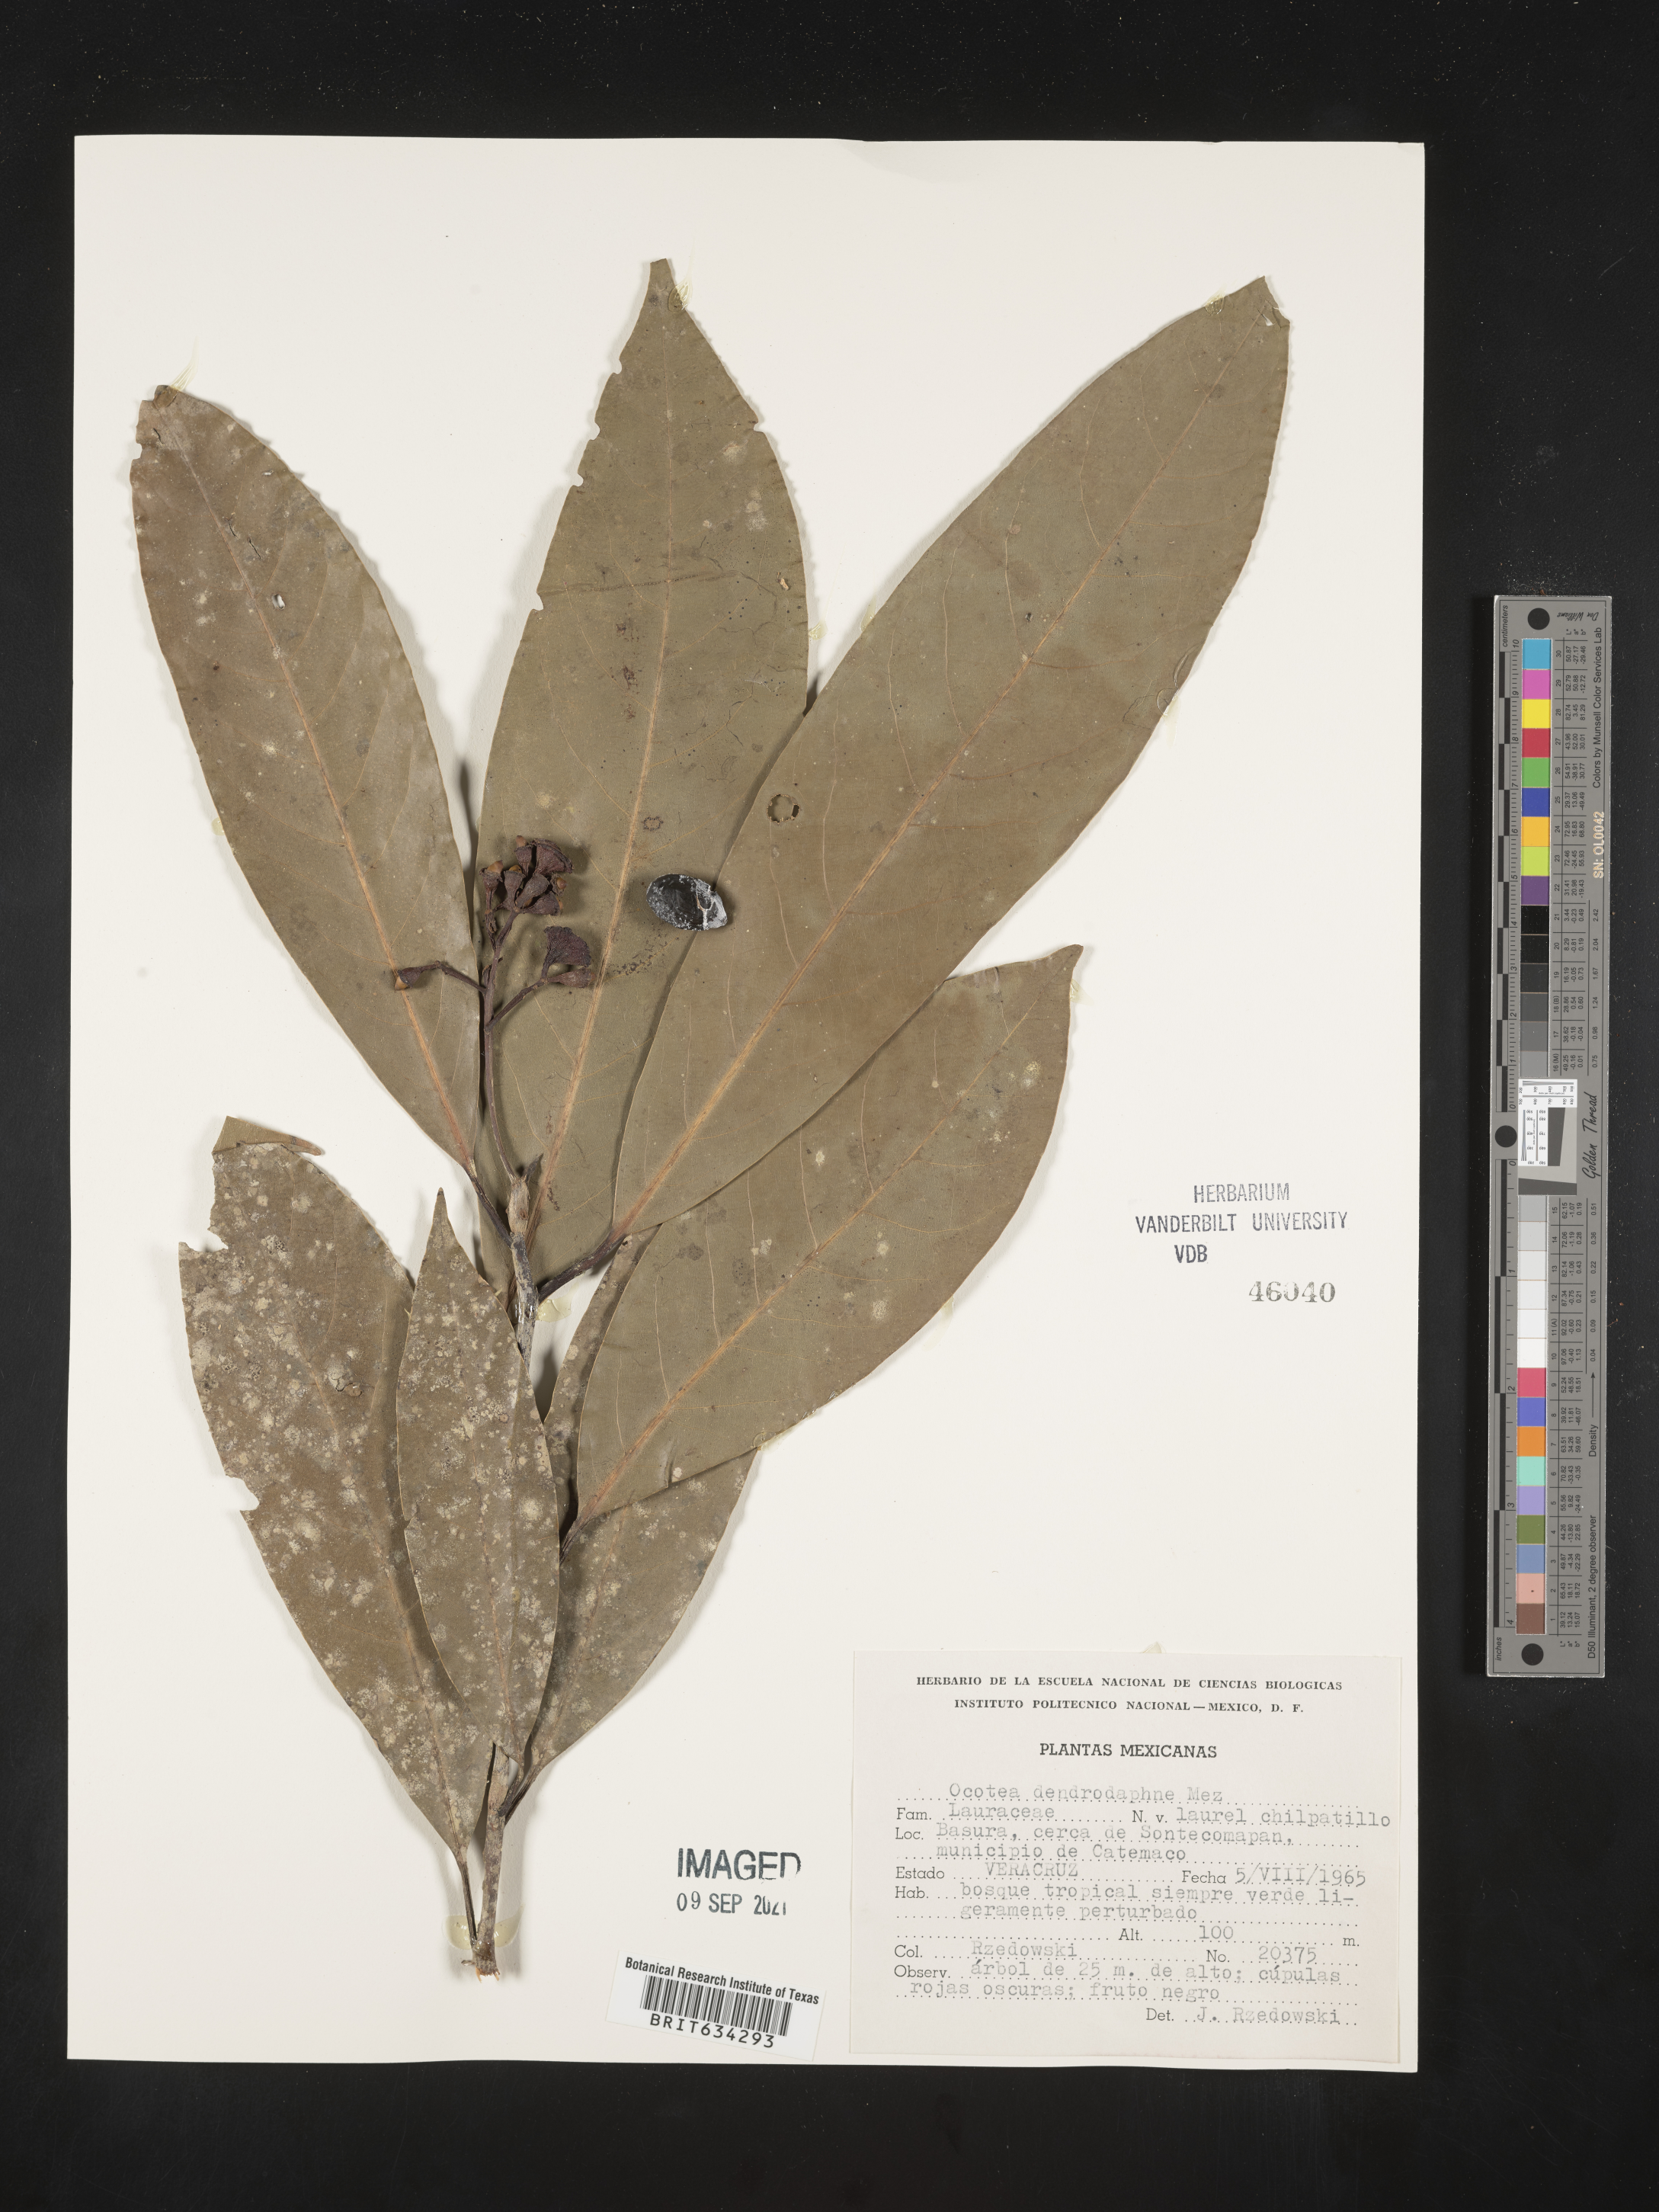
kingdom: Plantae
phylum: Tracheophyta
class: Magnoliopsida
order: Laurales
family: Lauraceae
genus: Ocotea
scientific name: Ocotea
